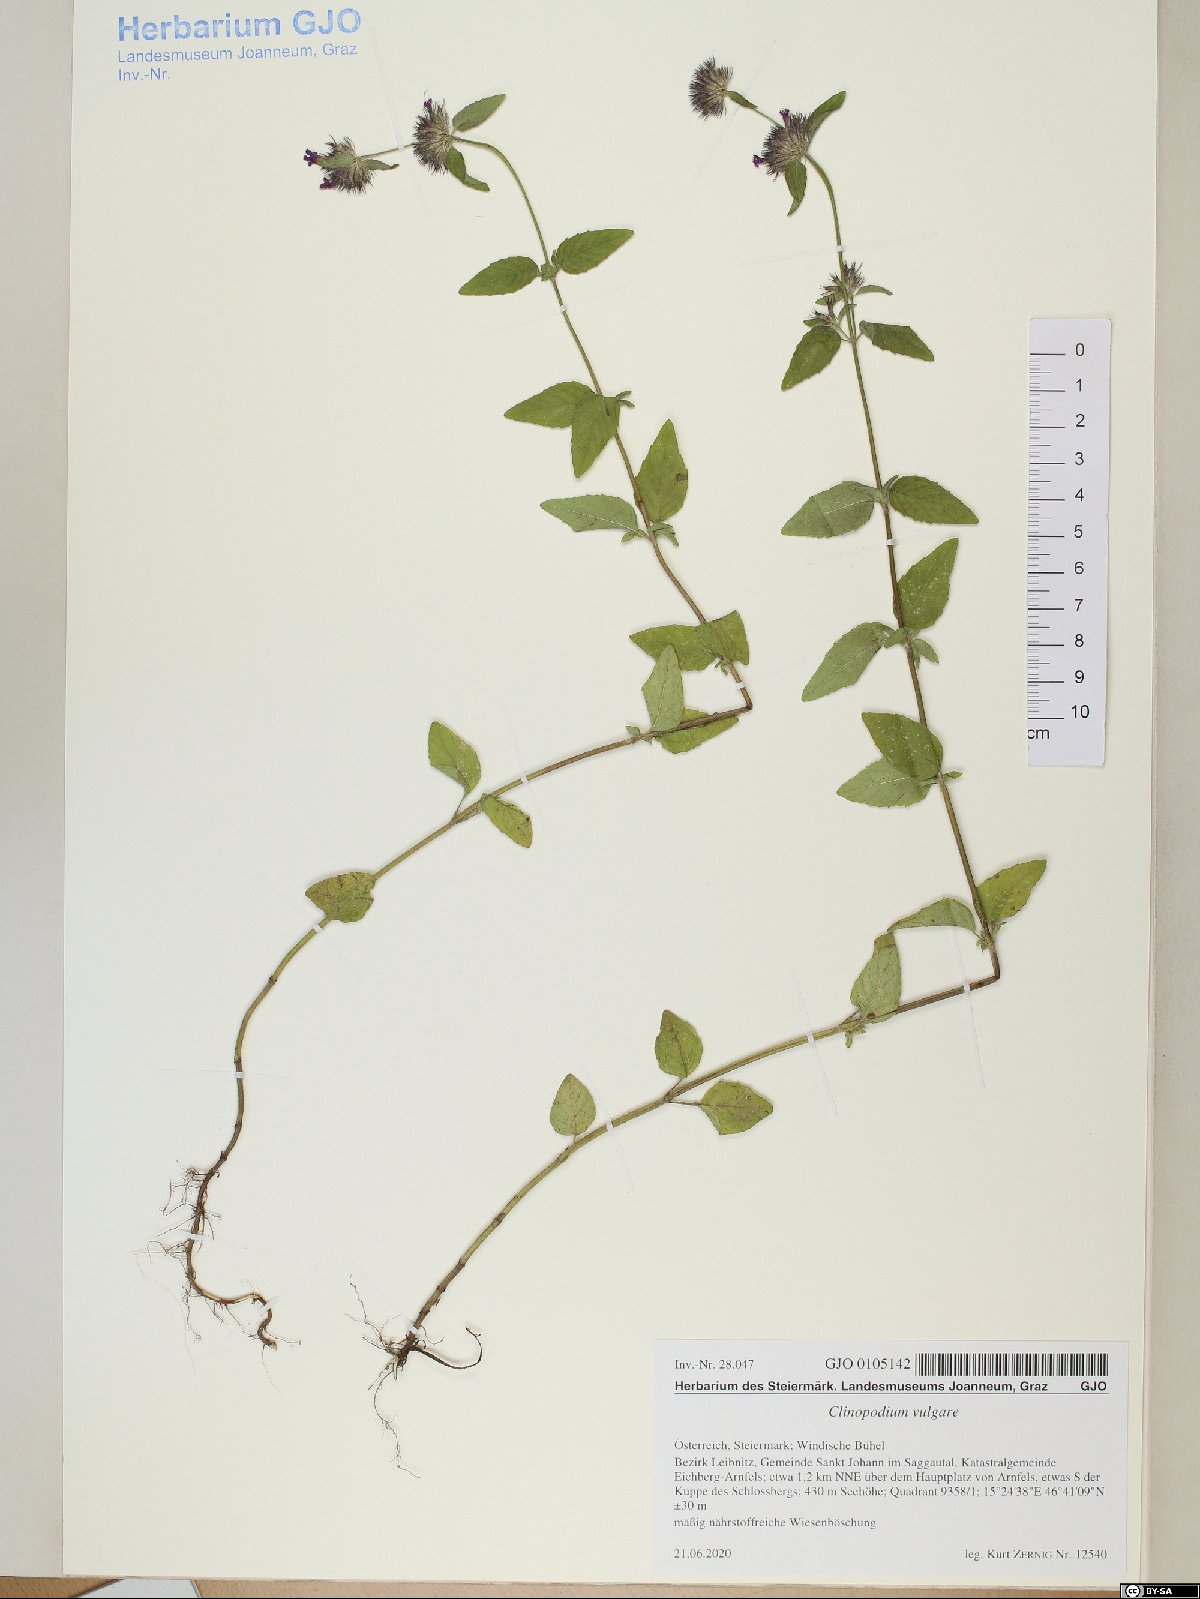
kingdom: Plantae
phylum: Tracheophyta
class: Magnoliopsida
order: Lamiales
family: Lamiaceae
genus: Clinopodium
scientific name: Clinopodium vulgare
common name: Wild basil
